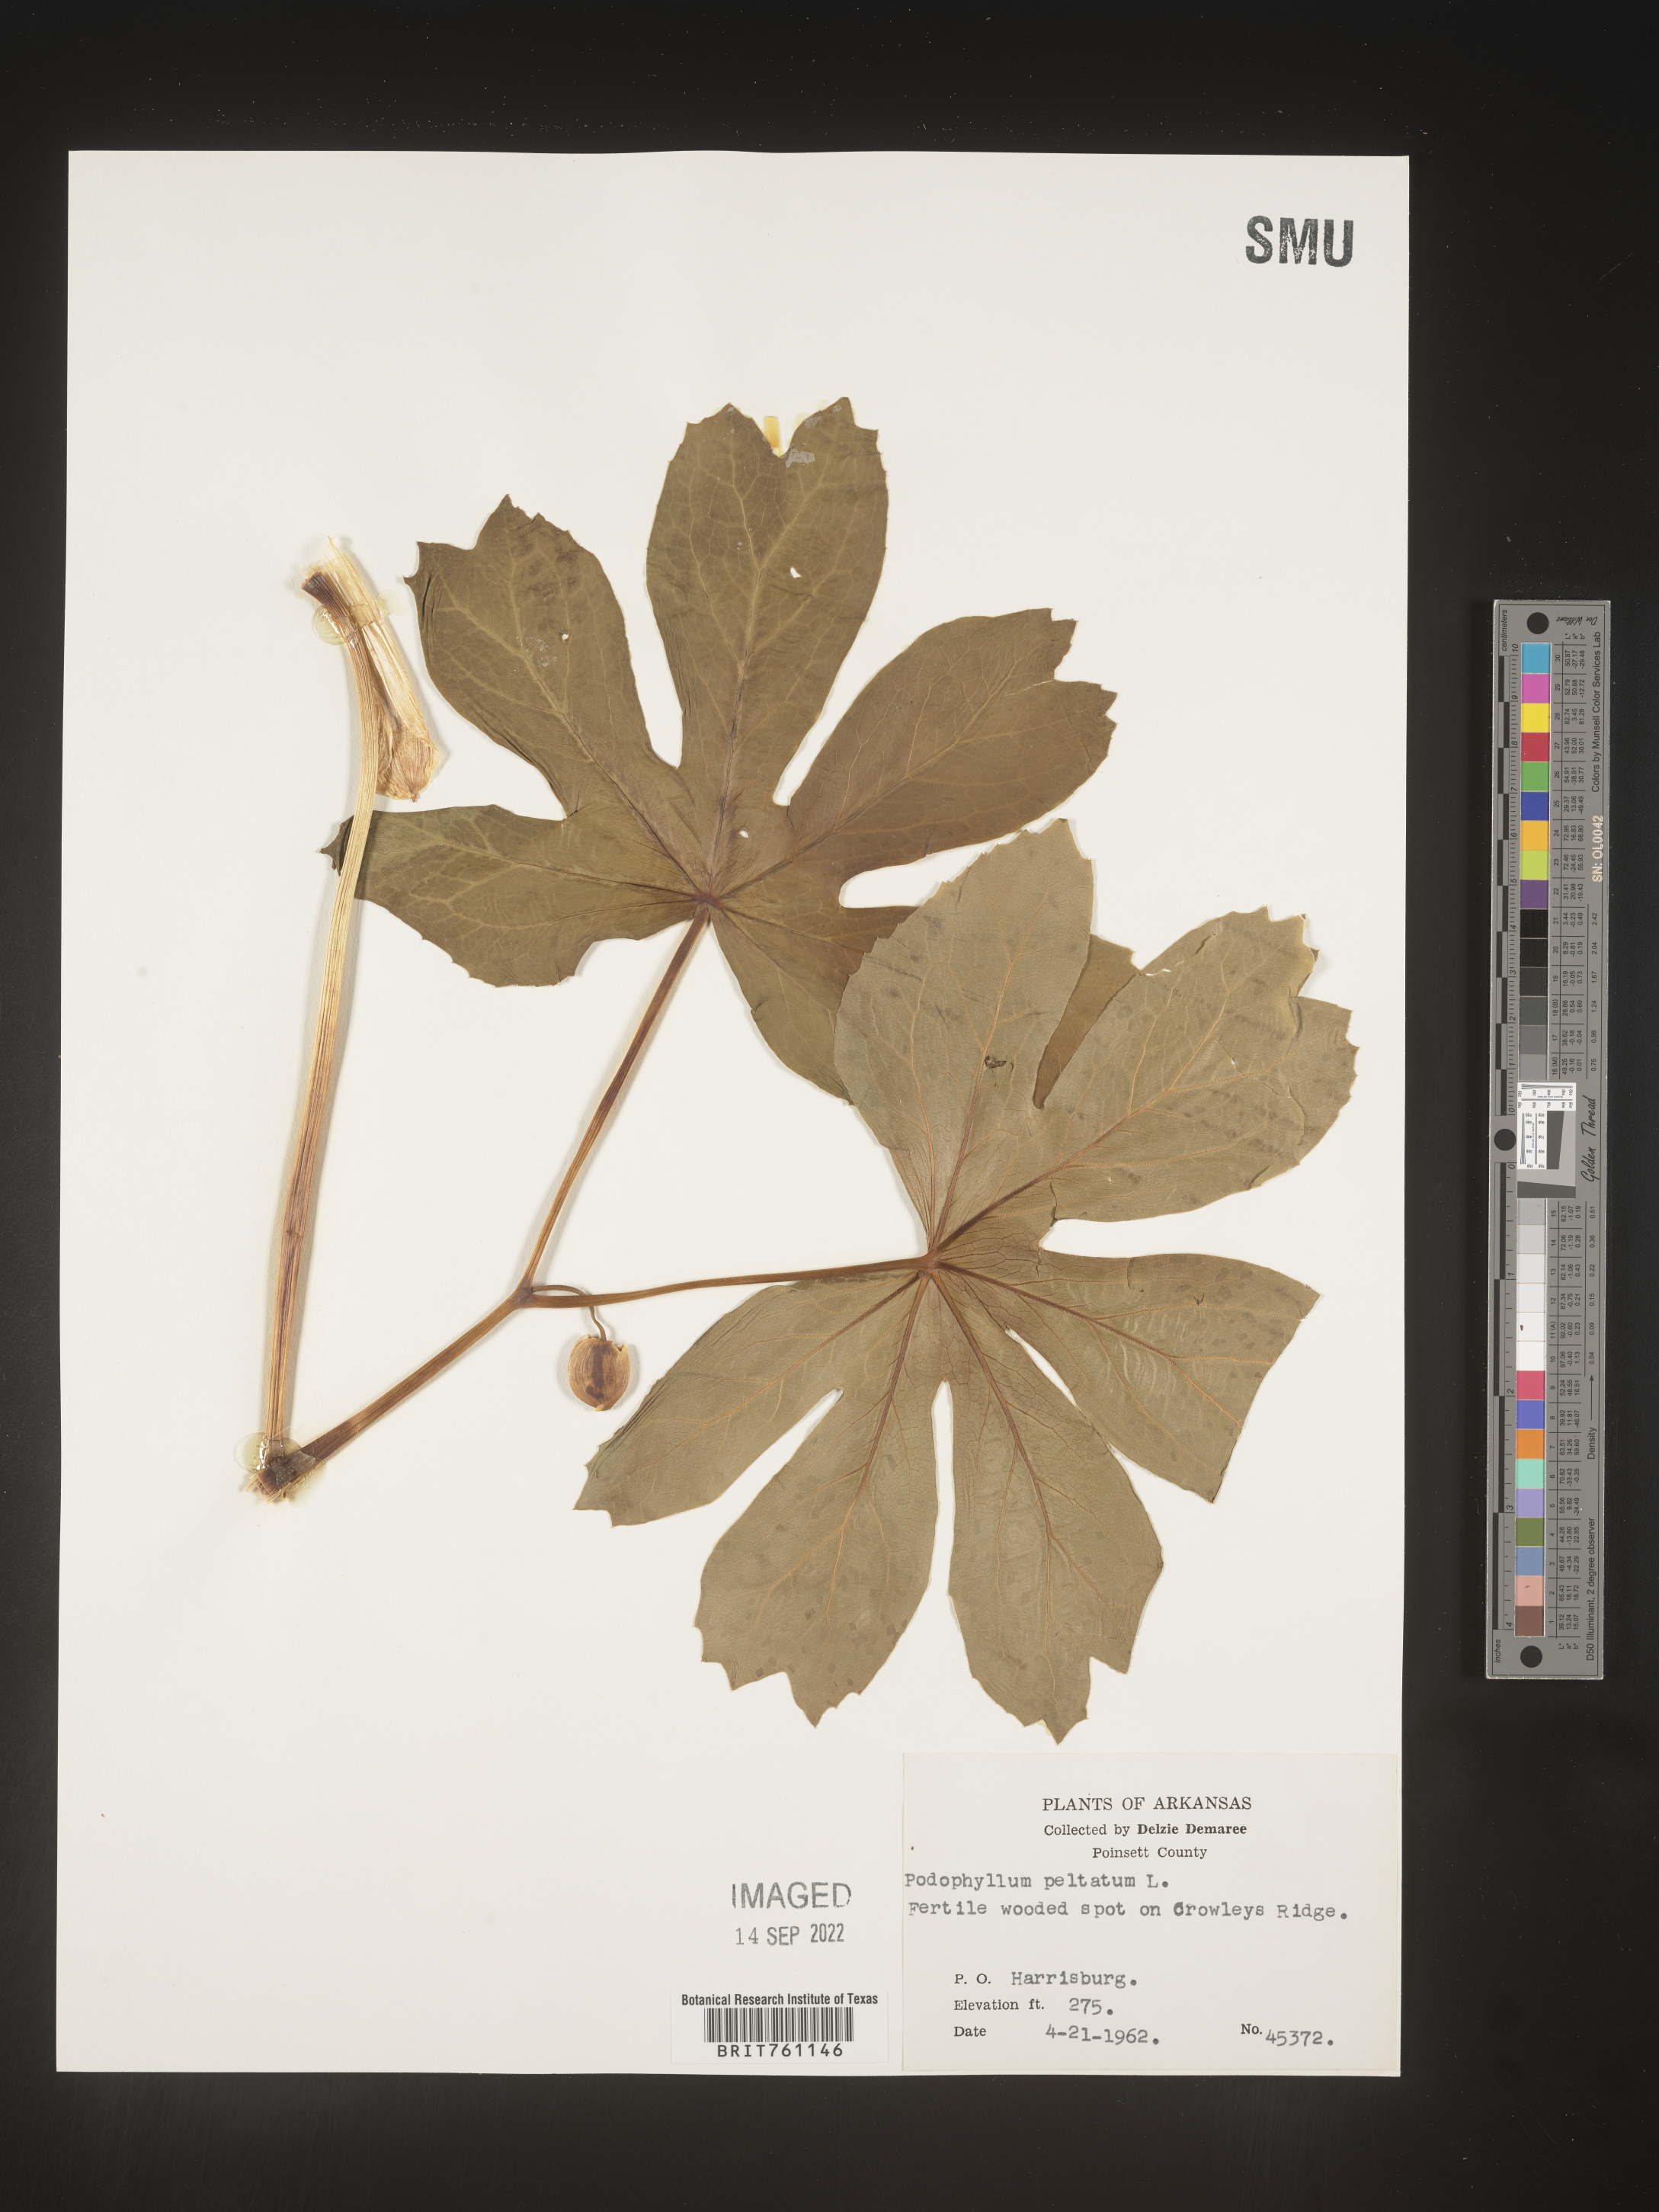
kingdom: Plantae
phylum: Tracheophyta
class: Magnoliopsida
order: Ranunculales
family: Berberidaceae
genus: Podophyllum
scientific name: Podophyllum peltatum
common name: Wild mandrake
